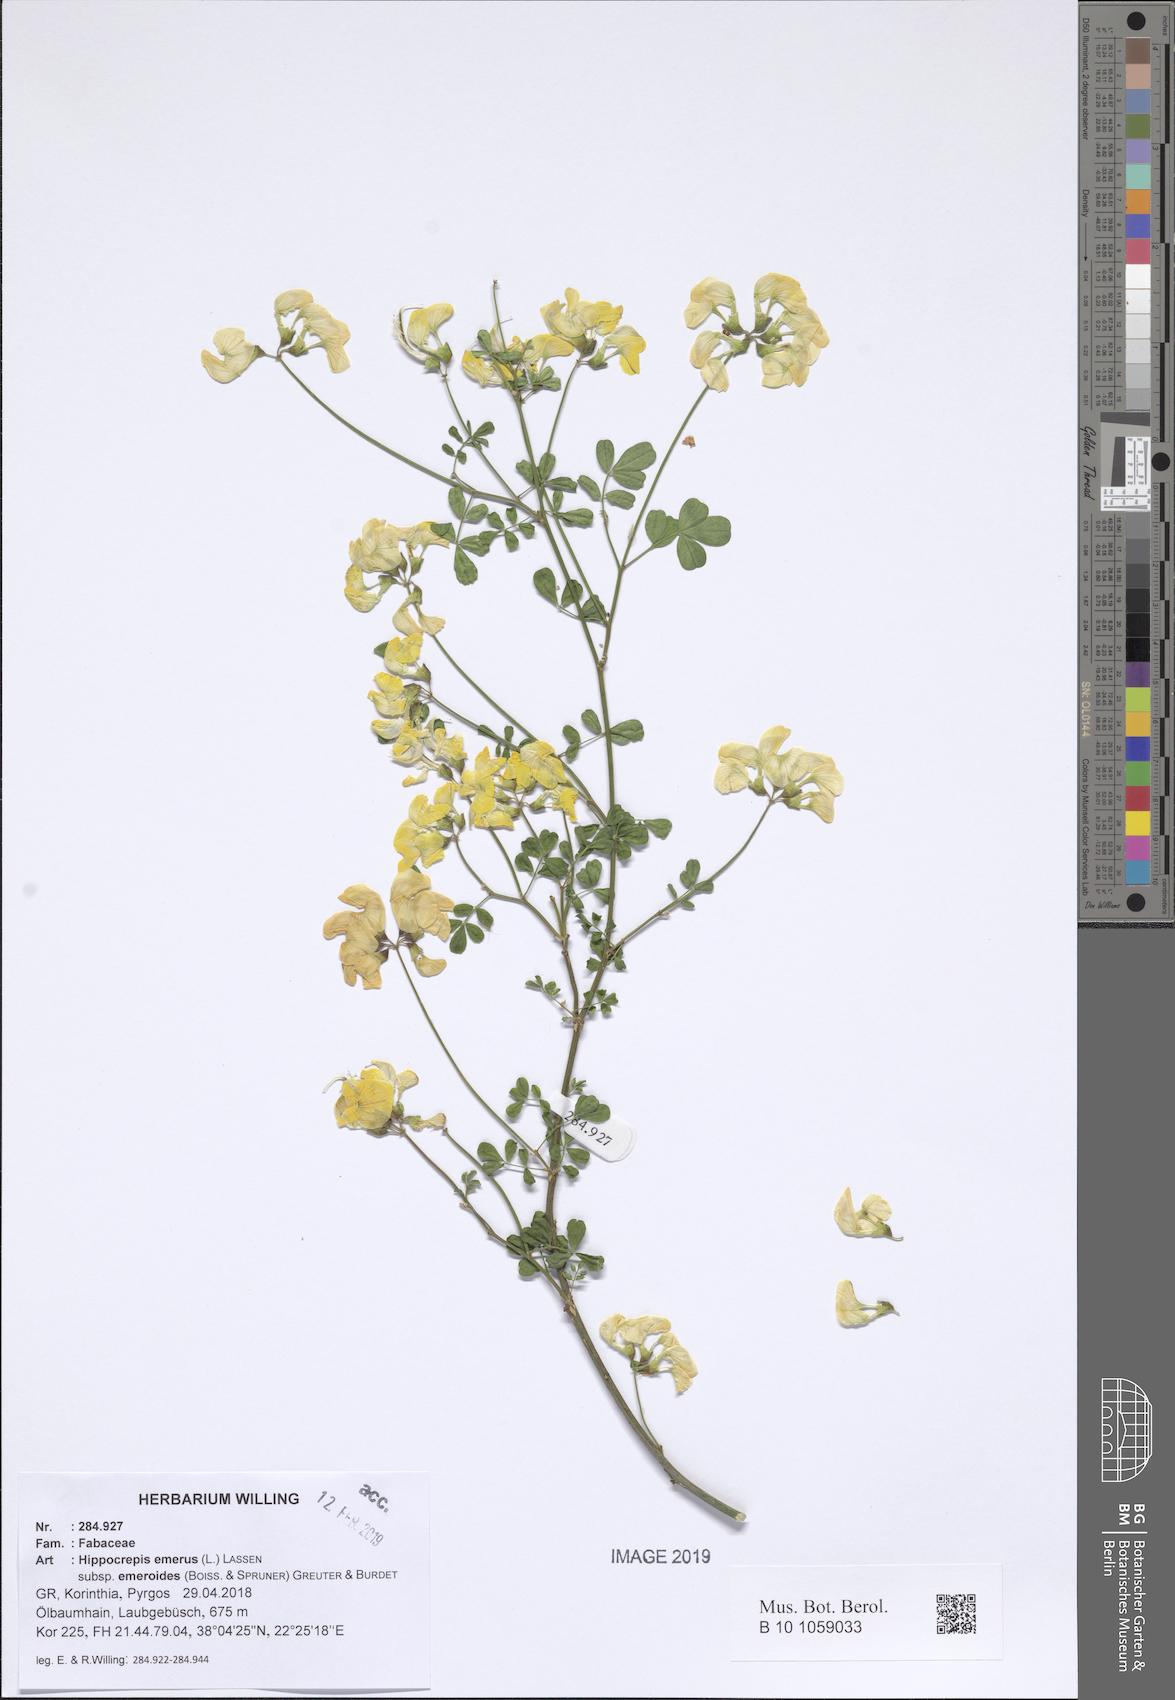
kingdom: Plantae
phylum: Tracheophyta
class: Magnoliopsida
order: Fabales
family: Fabaceae
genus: Hippocrepis
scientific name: Hippocrepis emerus
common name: Scorpion senna
